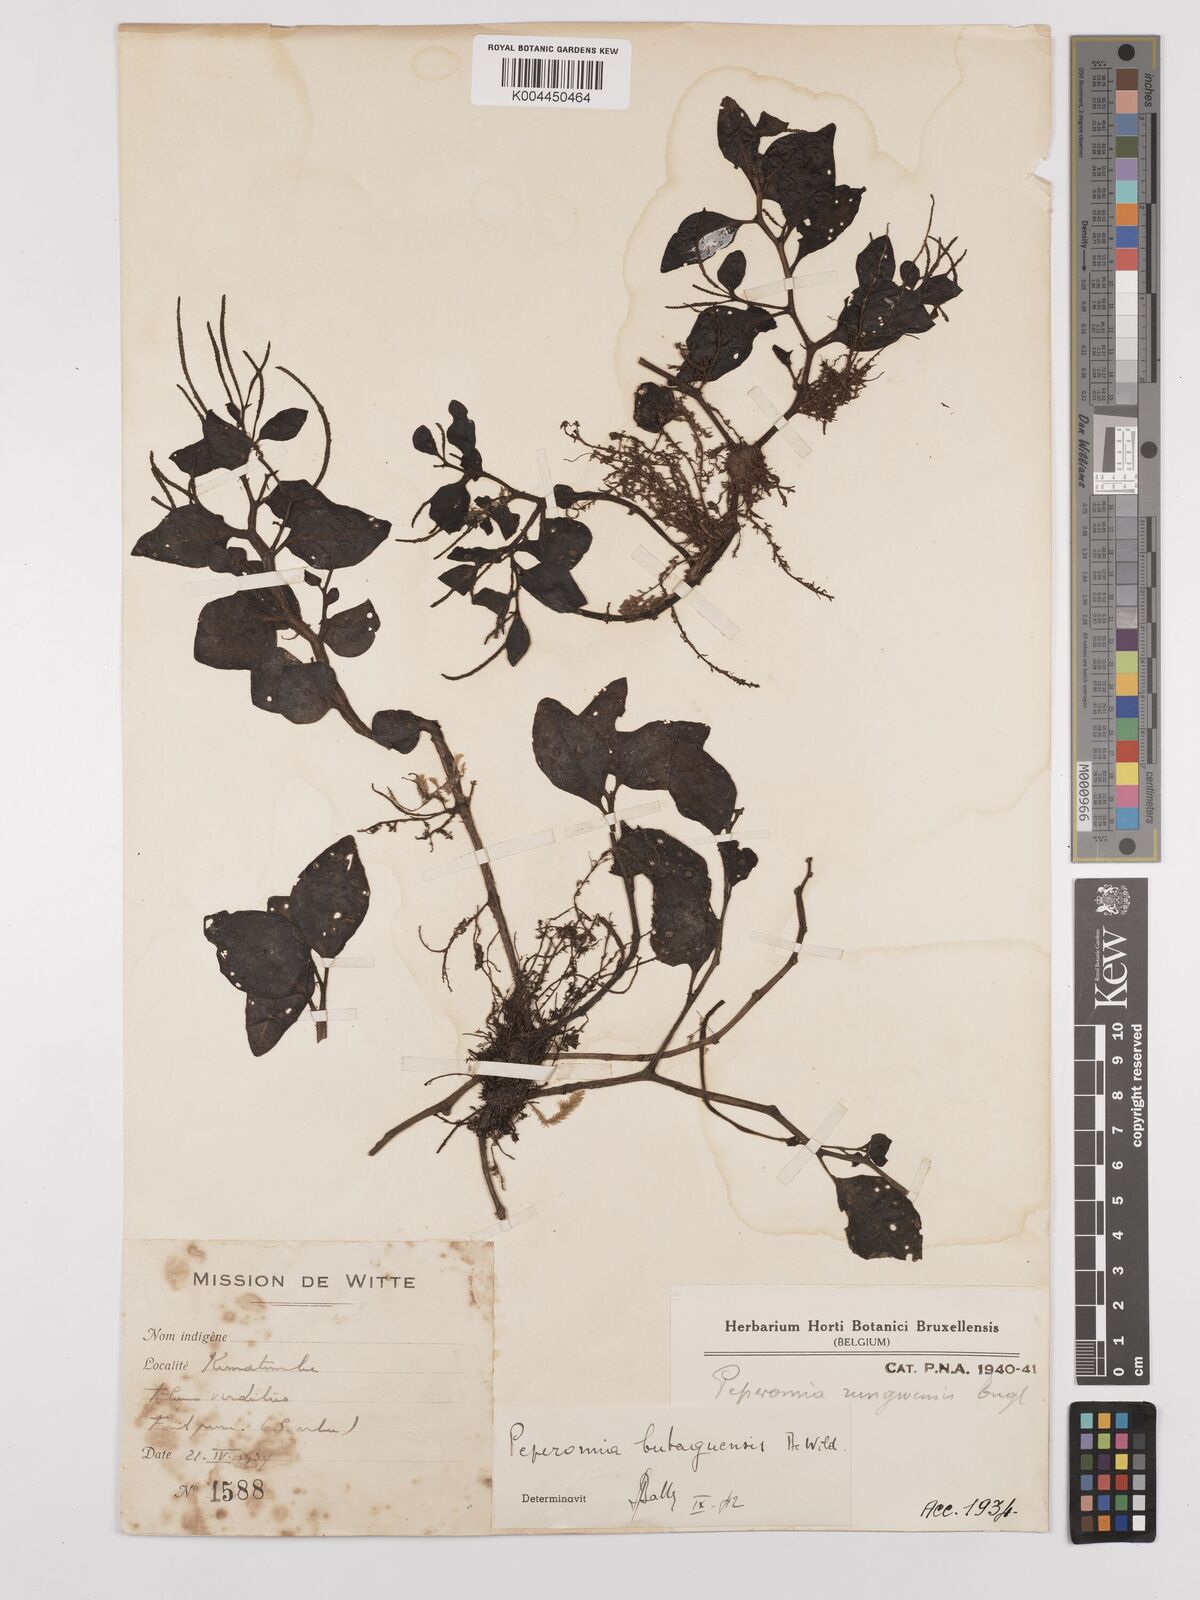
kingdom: Plantae
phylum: Tracheophyta
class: Magnoliopsida
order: Piperales
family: Piperaceae
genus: Peperomia
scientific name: Peperomia fernandopoiana
